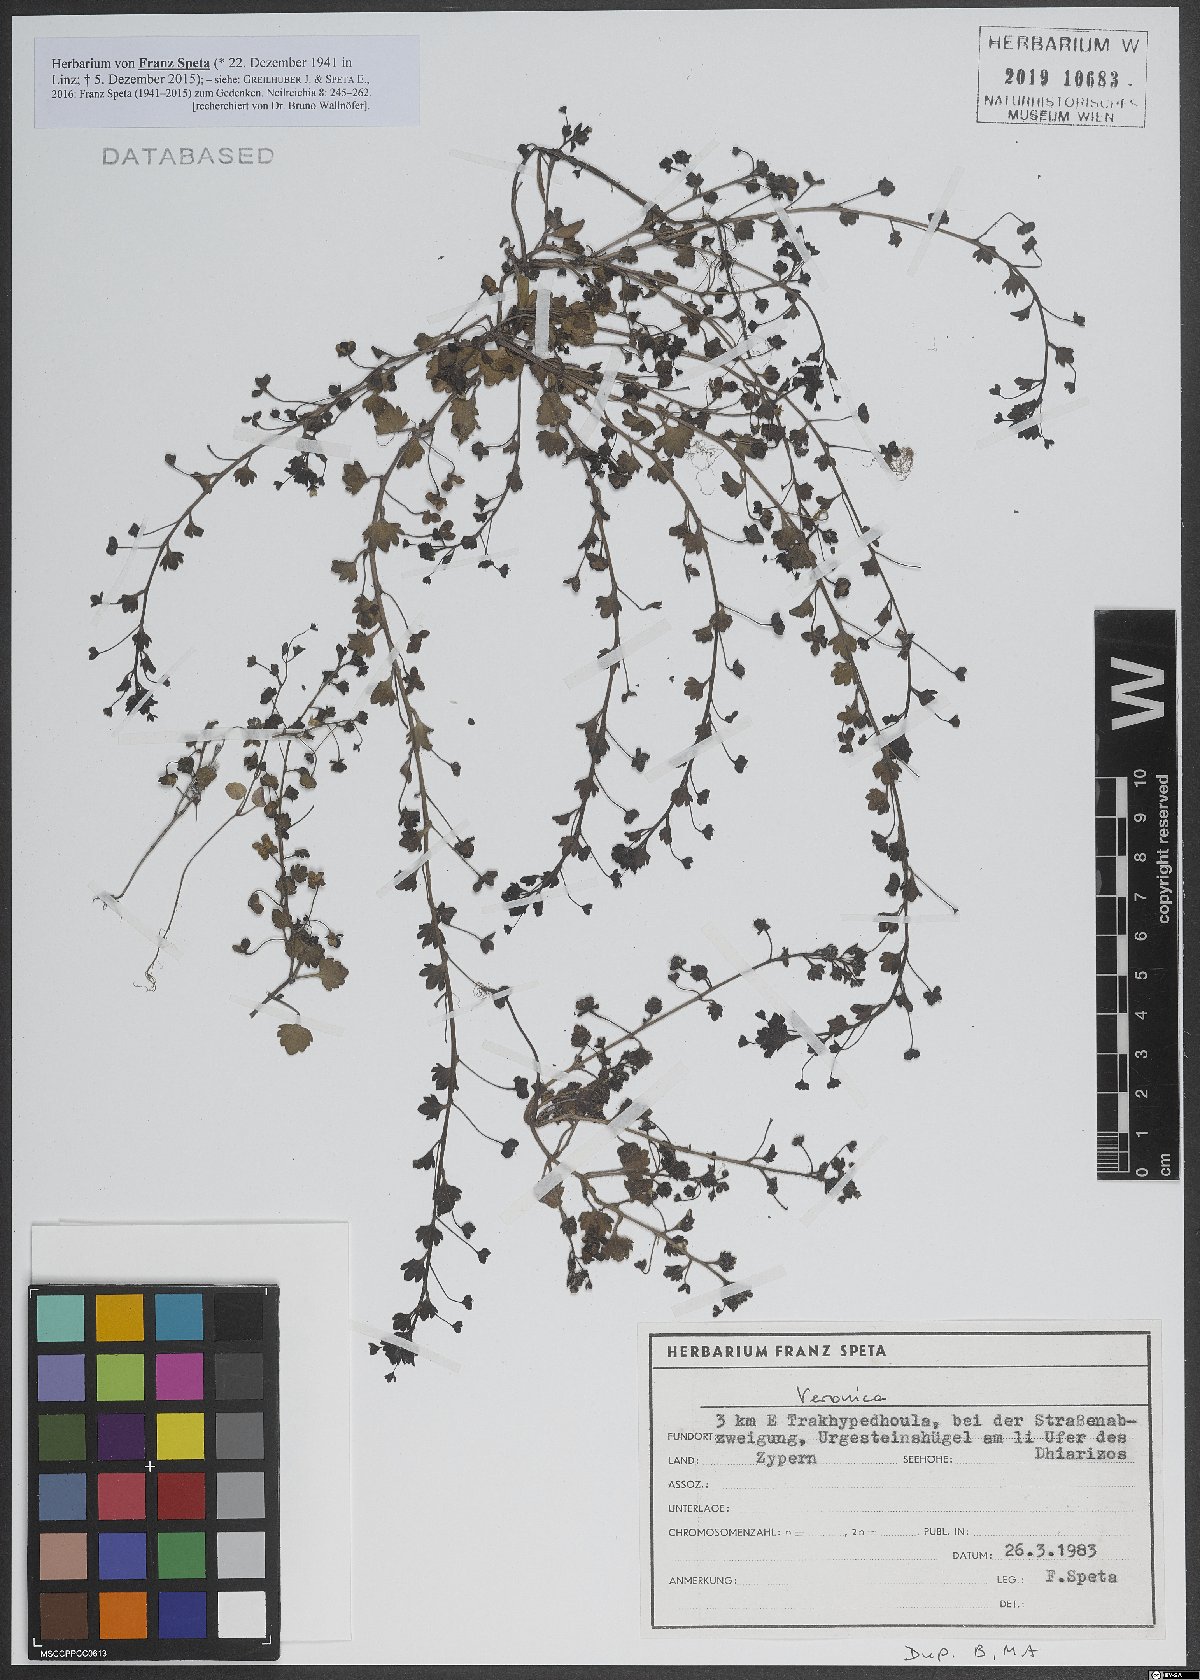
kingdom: Plantae
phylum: Tracheophyta
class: Magnoliopsida
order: Lamiales
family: Plantaginaceae
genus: Veronica
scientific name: Veronica
